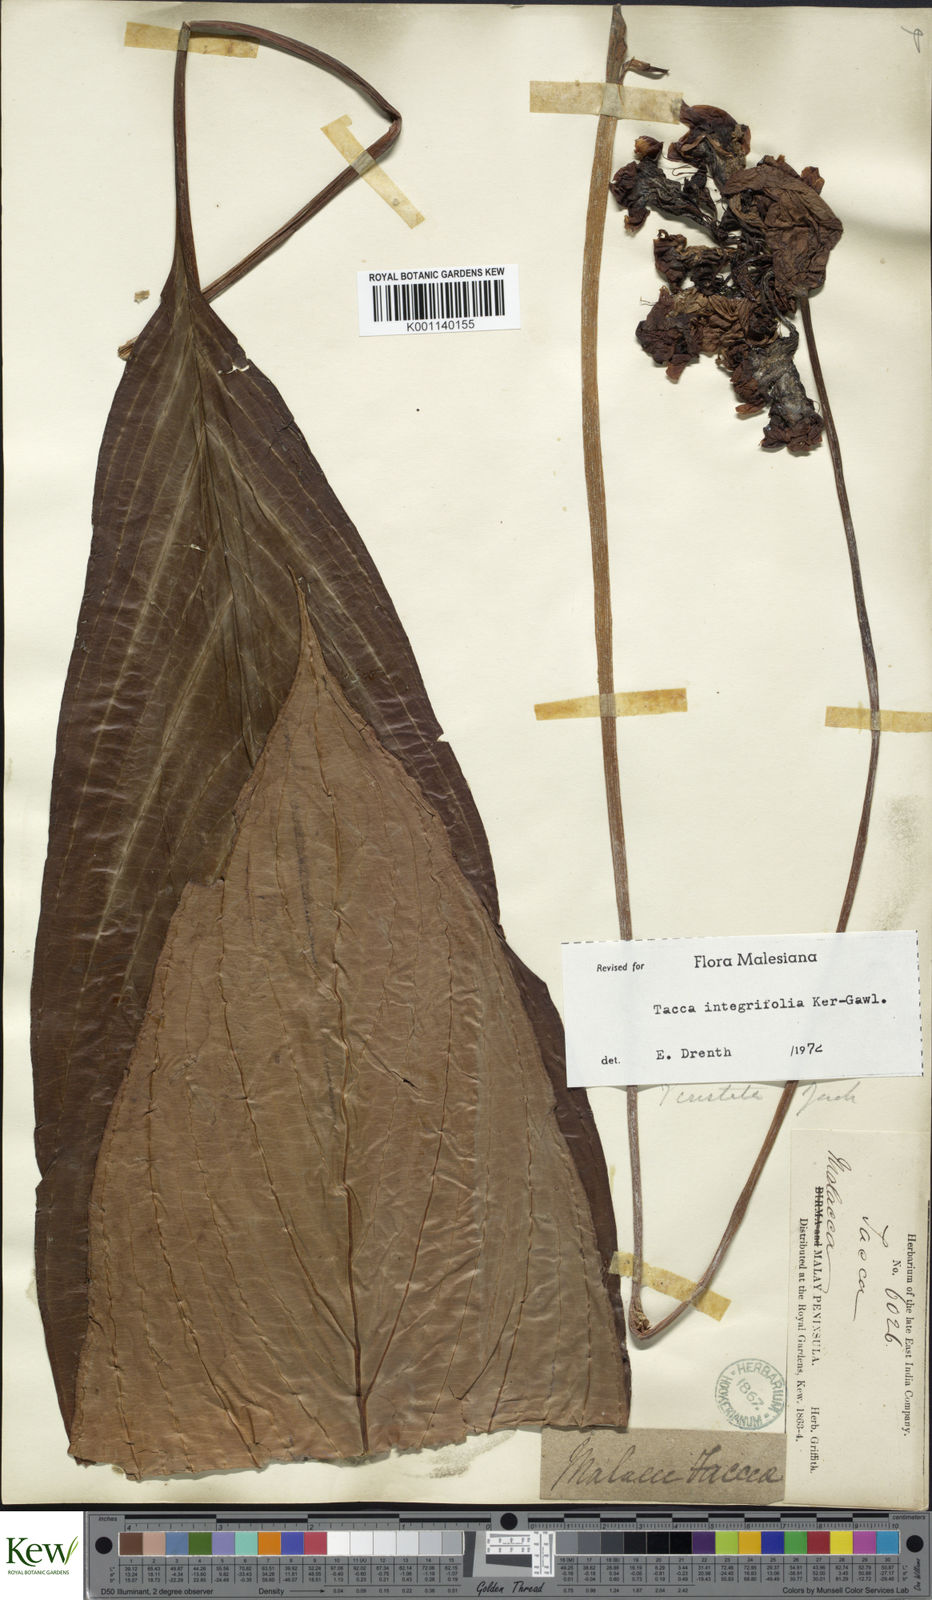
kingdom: Plantae
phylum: Tracheophyta
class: Liliopsida
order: Dioscoreales
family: Dioscoreaceae
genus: Tacca
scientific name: Tacca integrifolia
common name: Batplant
